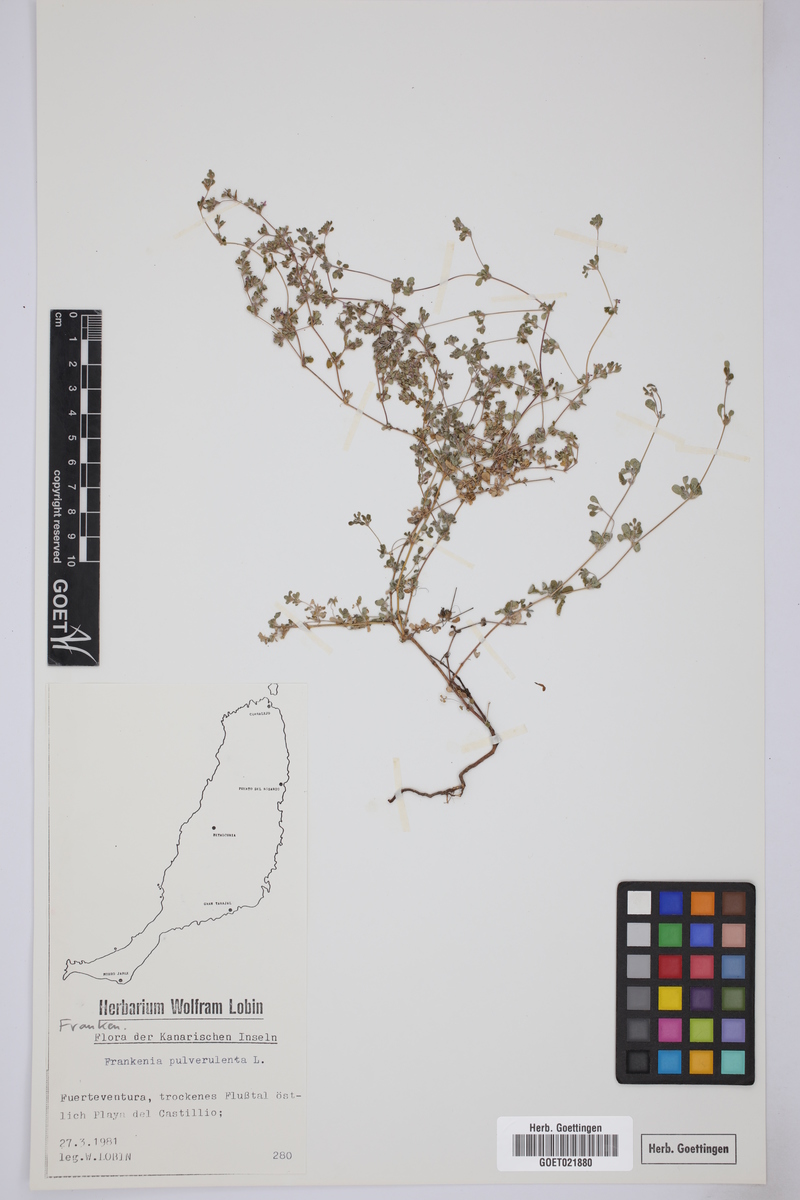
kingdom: Plantae
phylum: Tracheophyta
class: Magnoliopsida
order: Caryophyllales
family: Frankeniaceae
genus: Frankenia
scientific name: Frankenia pulverulenta
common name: European seaheath
